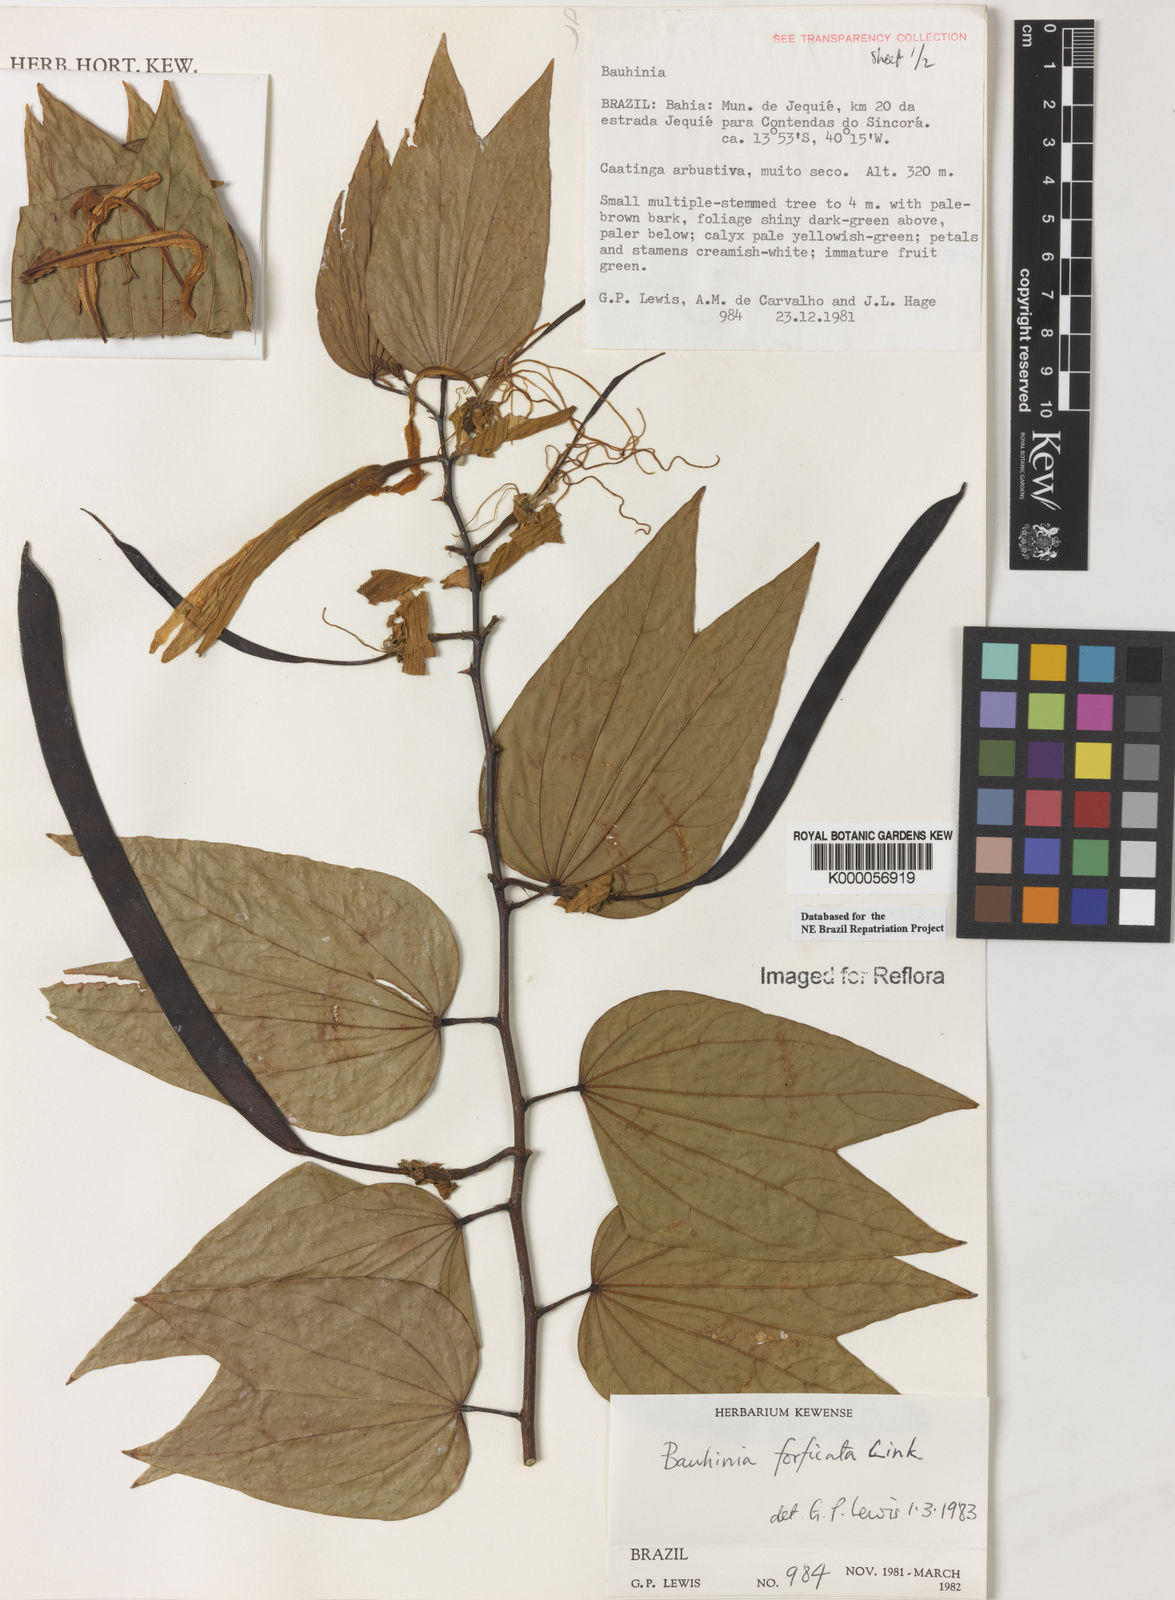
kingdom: Plantae
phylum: Tracheophyta
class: Magnoliopsida
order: Fabales
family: Fabaceae
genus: Bauhinia
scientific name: Bauhinia forficata
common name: Orchid tree
